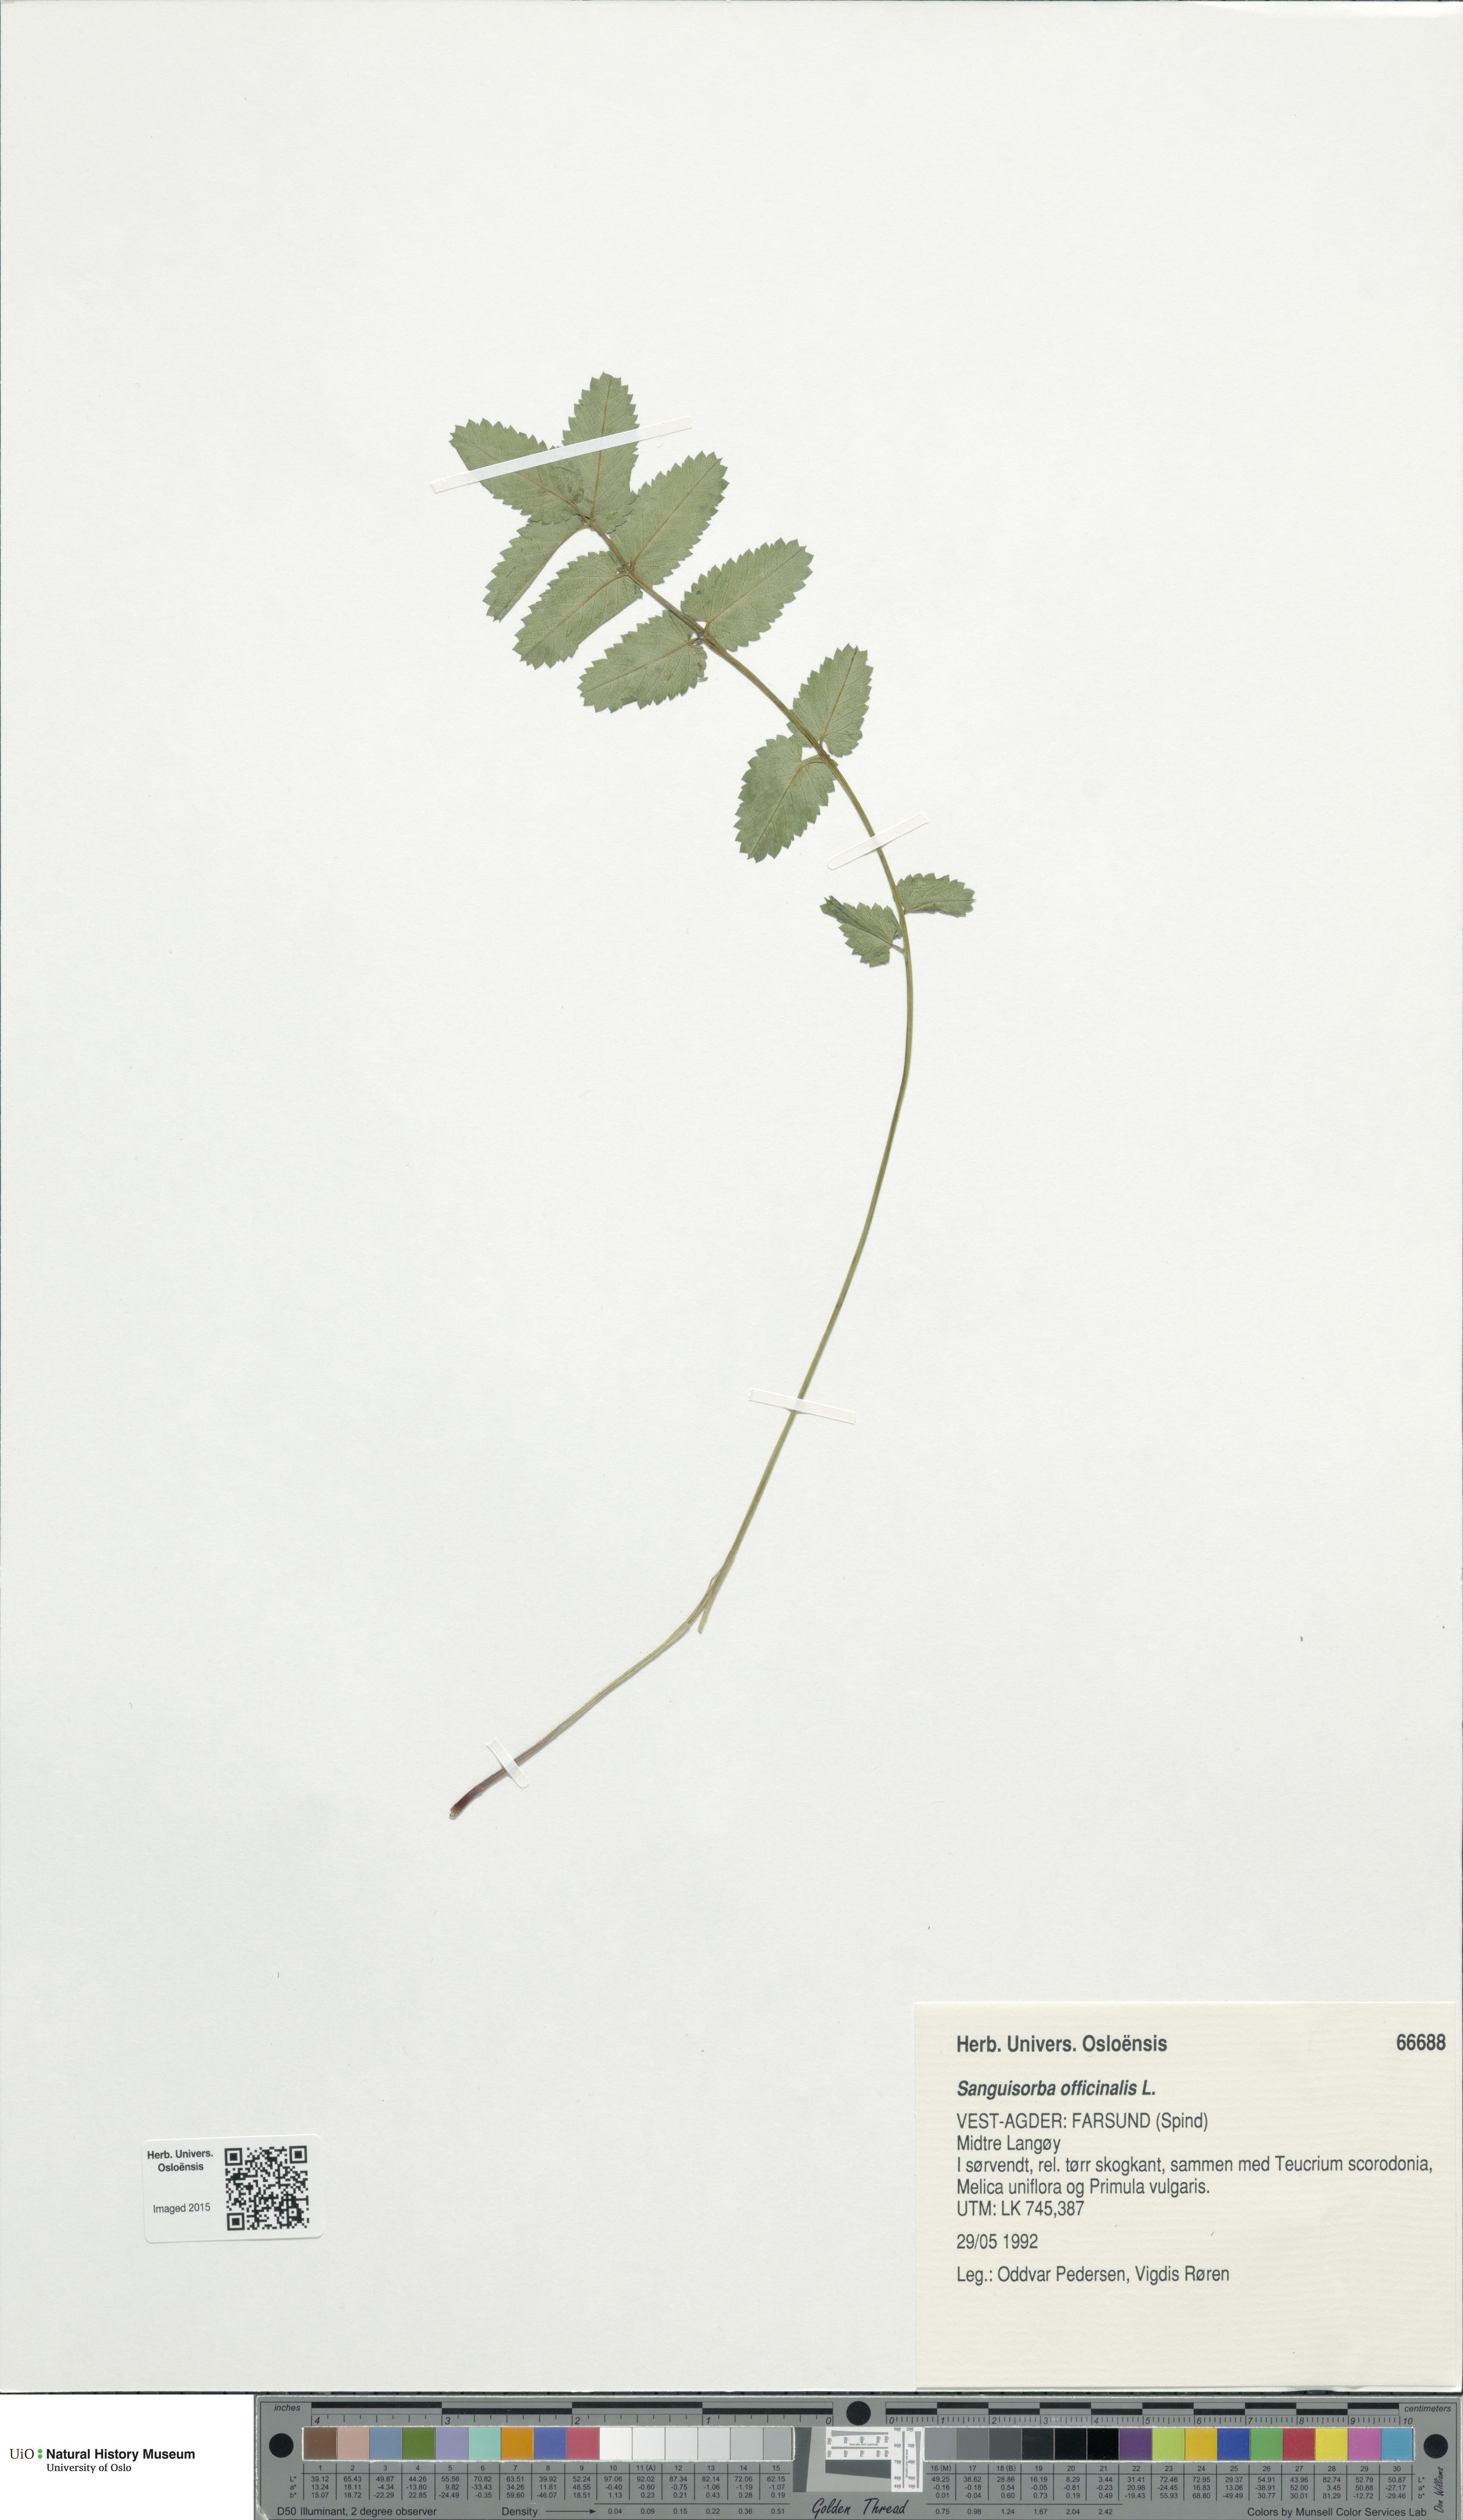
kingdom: Plantae
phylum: Tracheophyta
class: Magnoliopsida
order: Rosales
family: Rosaceae
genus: Sanguisorba
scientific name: Sanguisorba officinalis
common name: Great burnet
